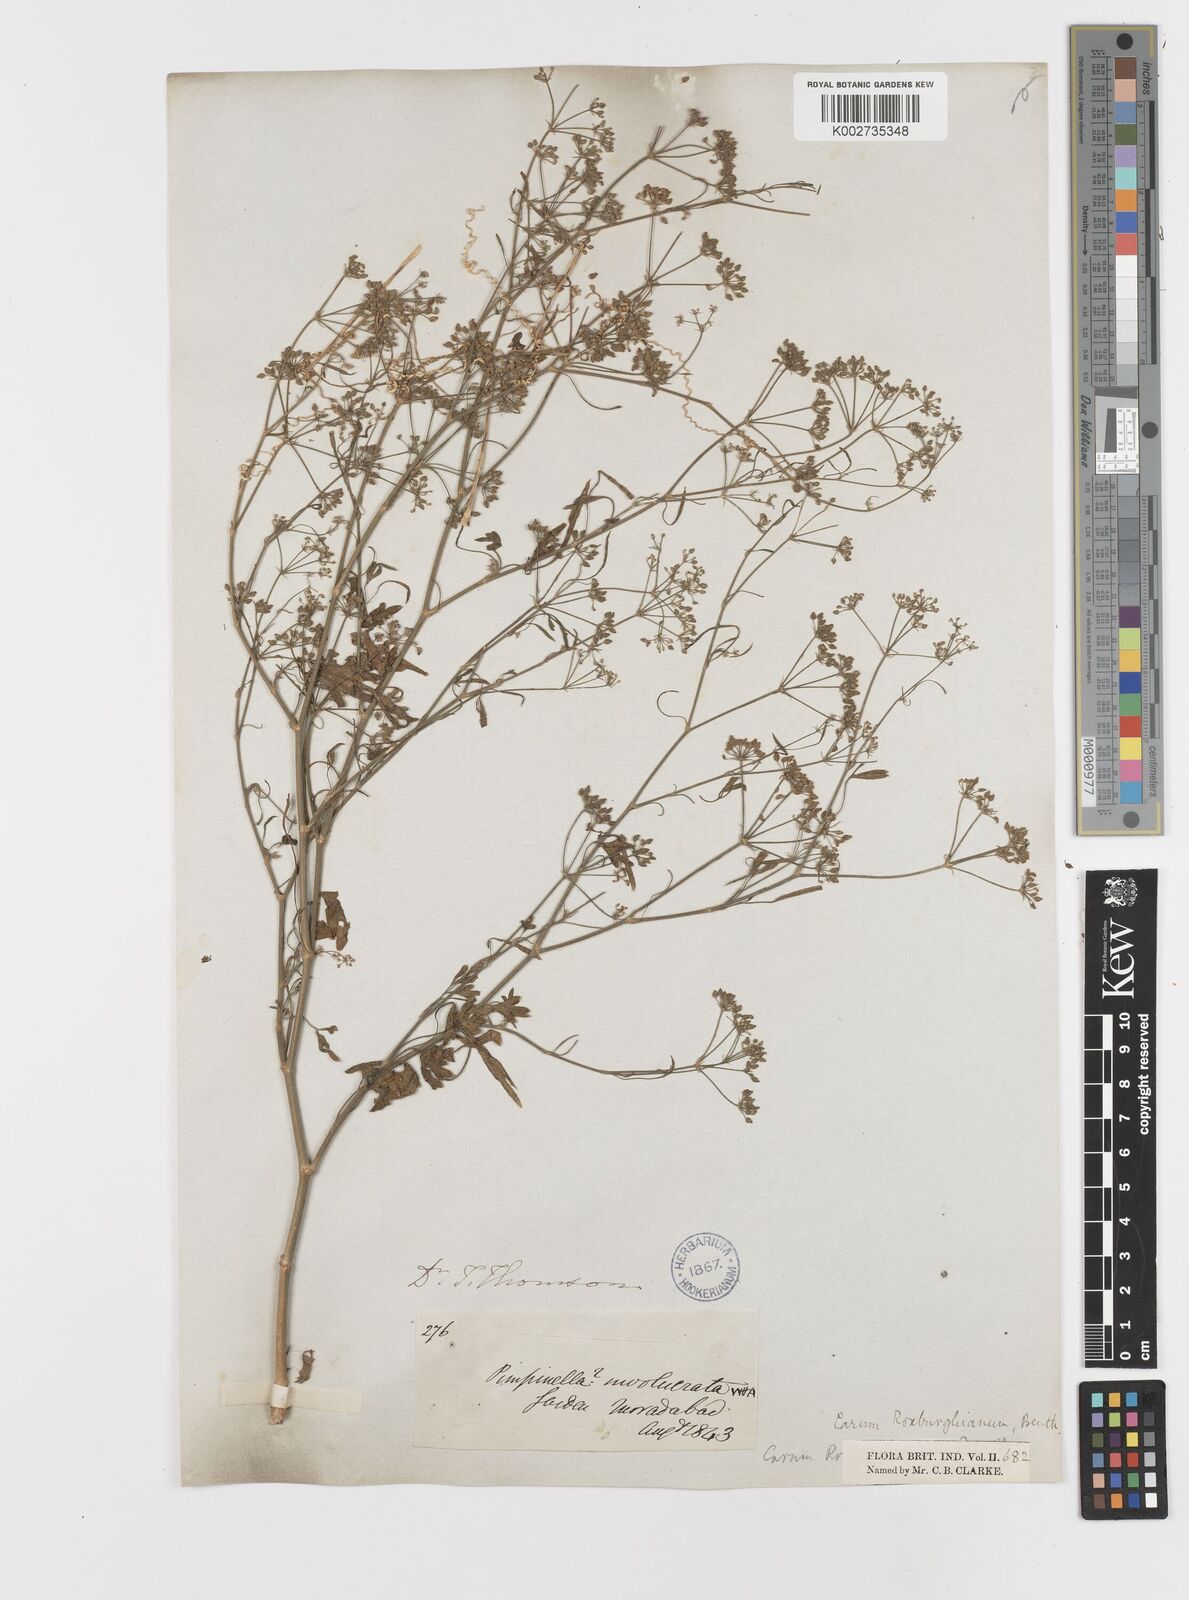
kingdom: Plantae
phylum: Tracheophyta
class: Magnoliopsida
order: Apiales
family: Apiaceae
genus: Psammogeton
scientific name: Psammogeton involucratum
